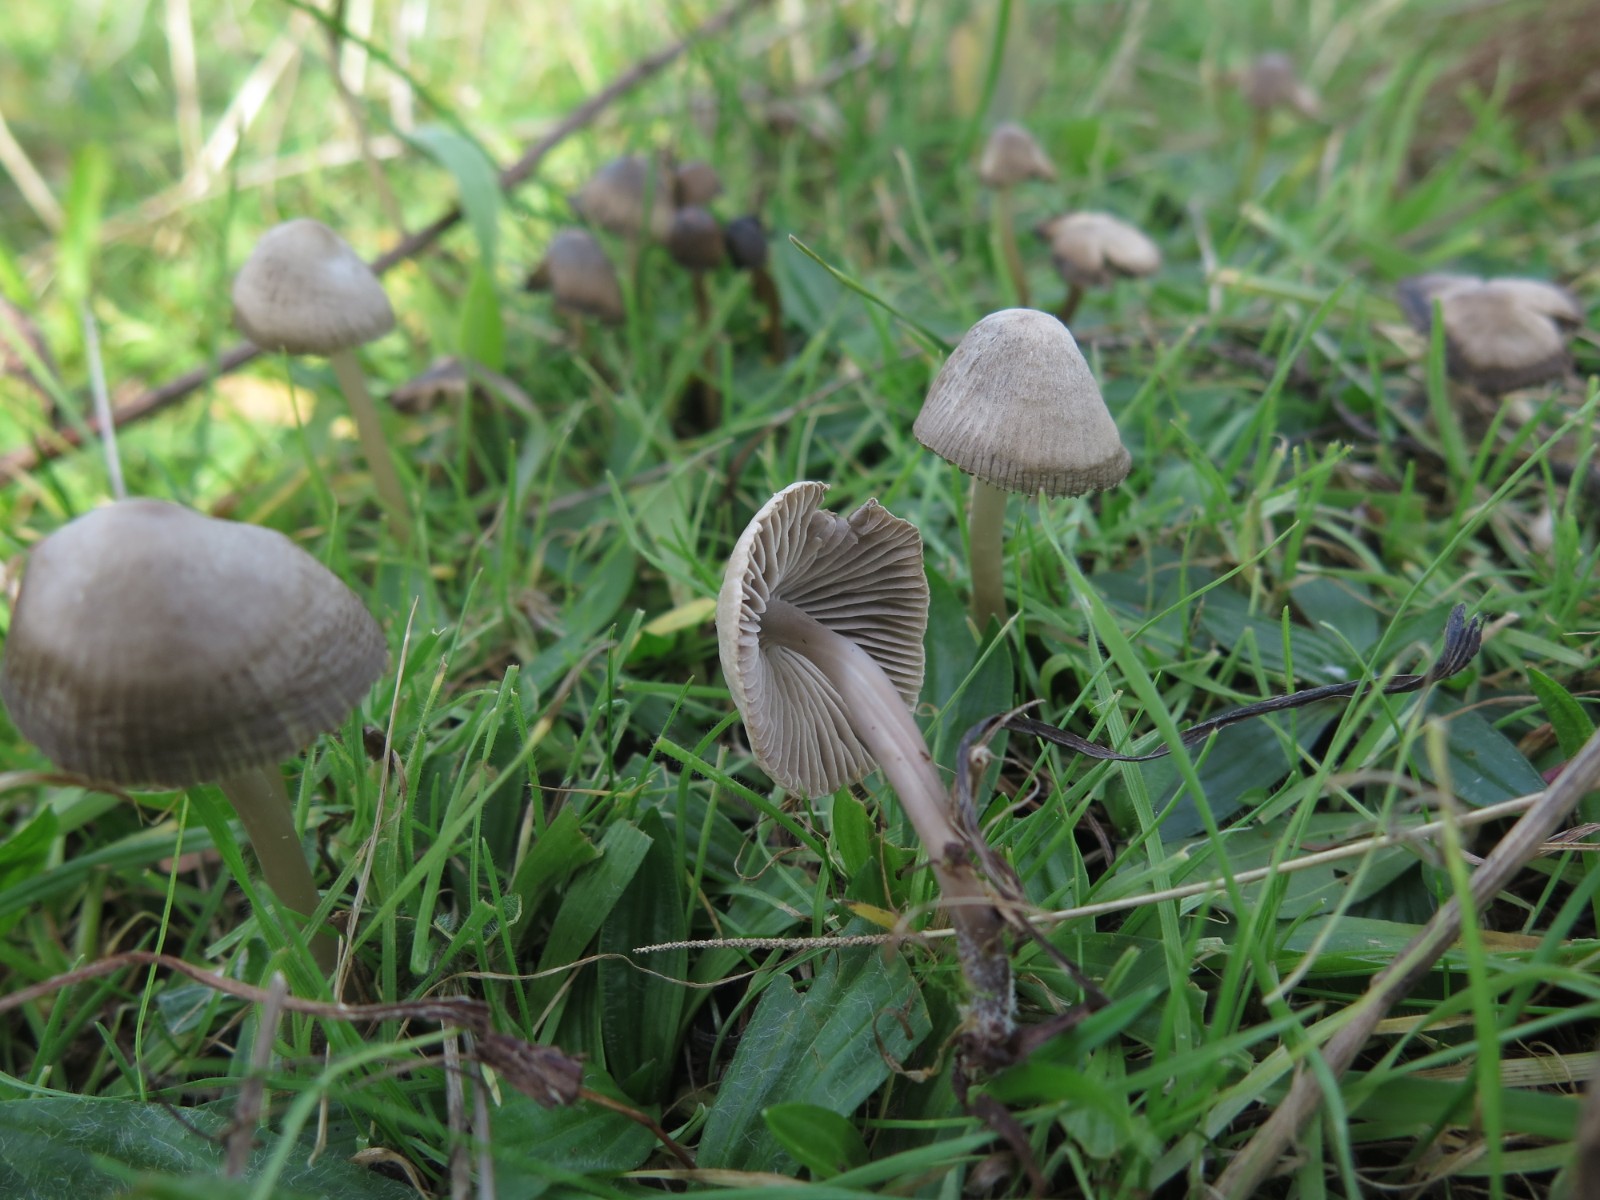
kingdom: Fungi
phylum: Basidiomycota
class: Agaricomycetes
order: Agaricales
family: Mycenaceae
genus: Mycena
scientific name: Mycena leptocephala
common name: klor-huesvamp
